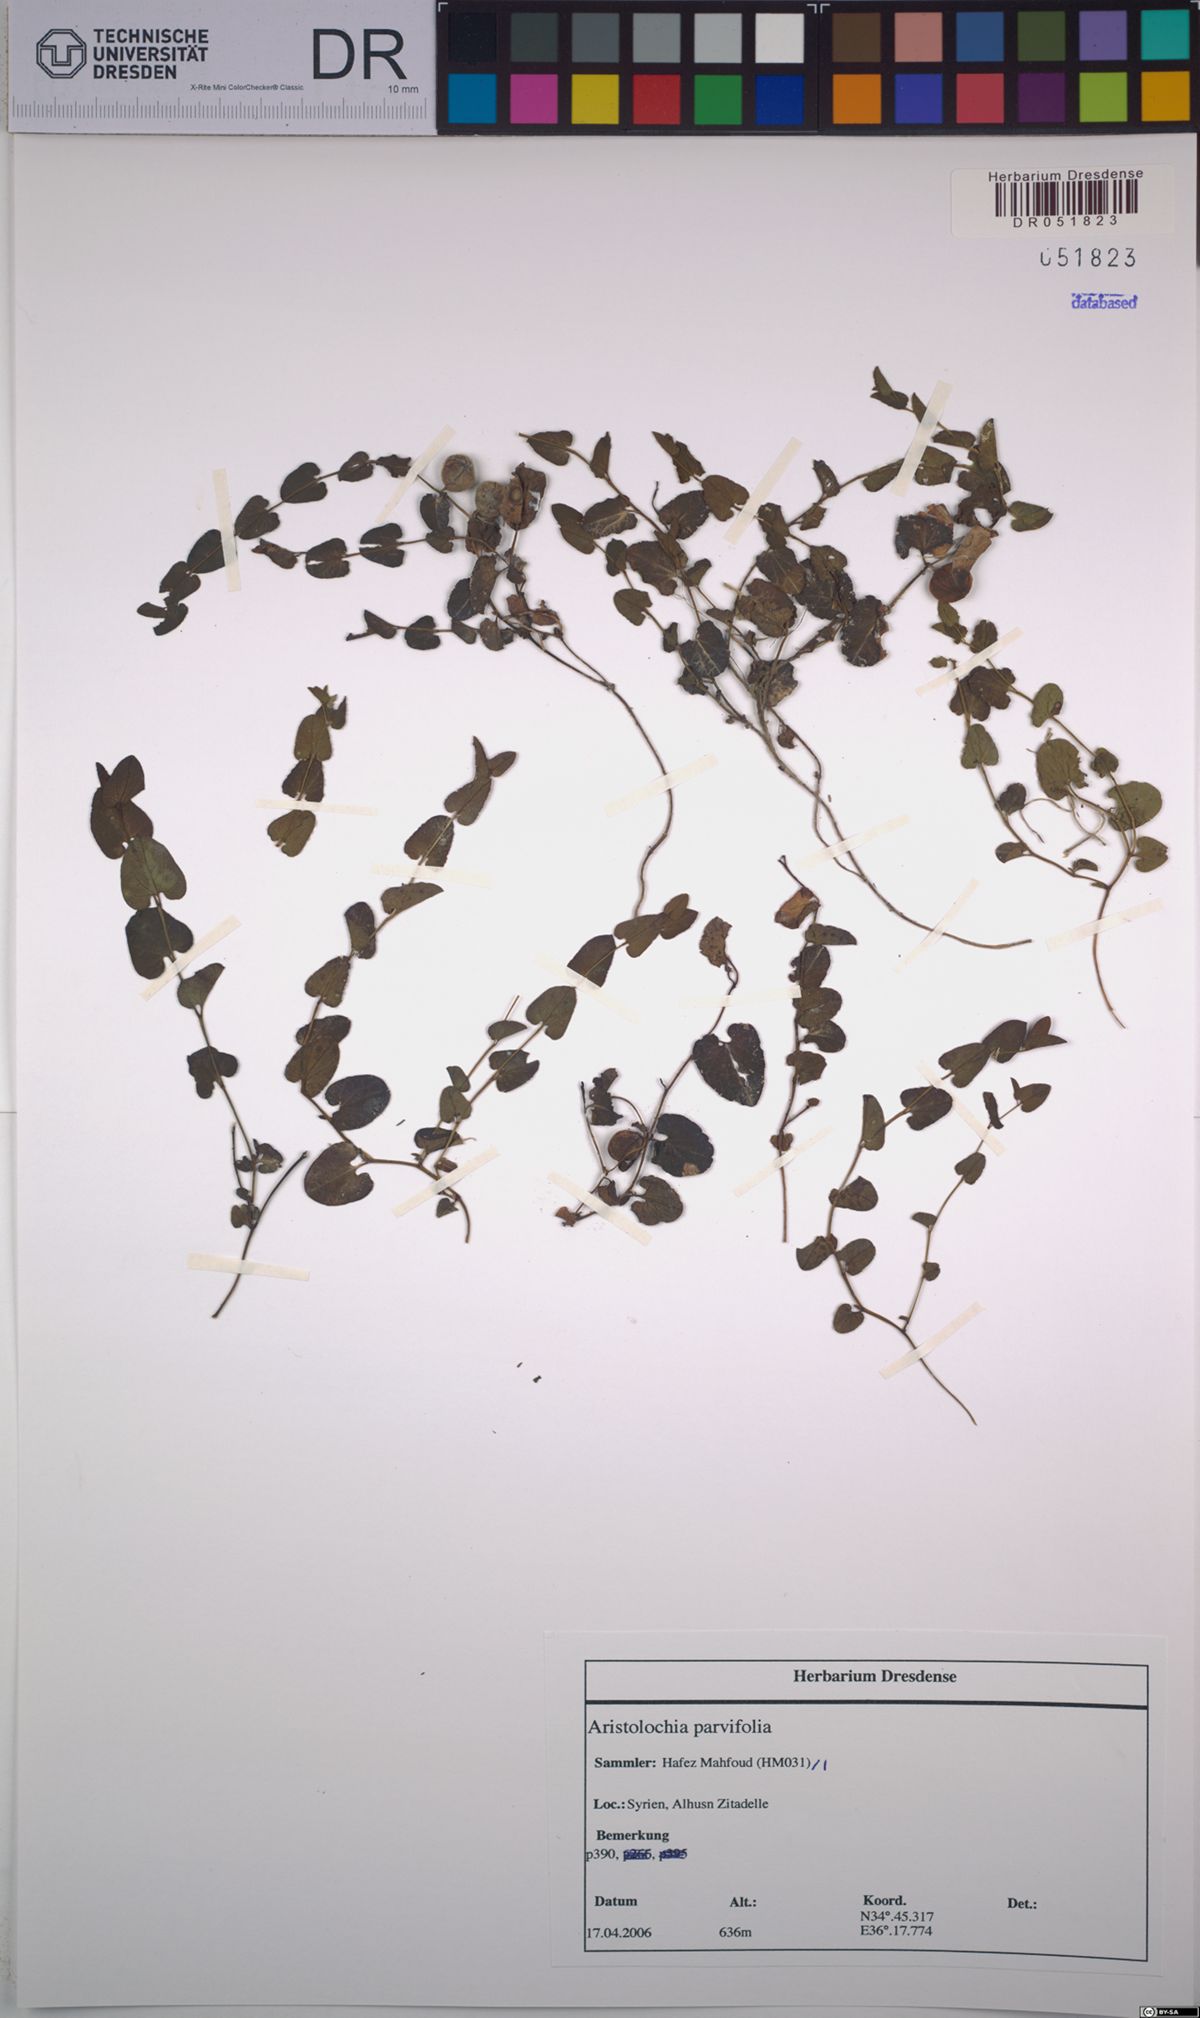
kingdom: Plantae
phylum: Tracheophyta
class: Magnoliopsida
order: Piperales
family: Aristolochiaceae
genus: Aristolochia
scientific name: Aristolochia parvifolia
